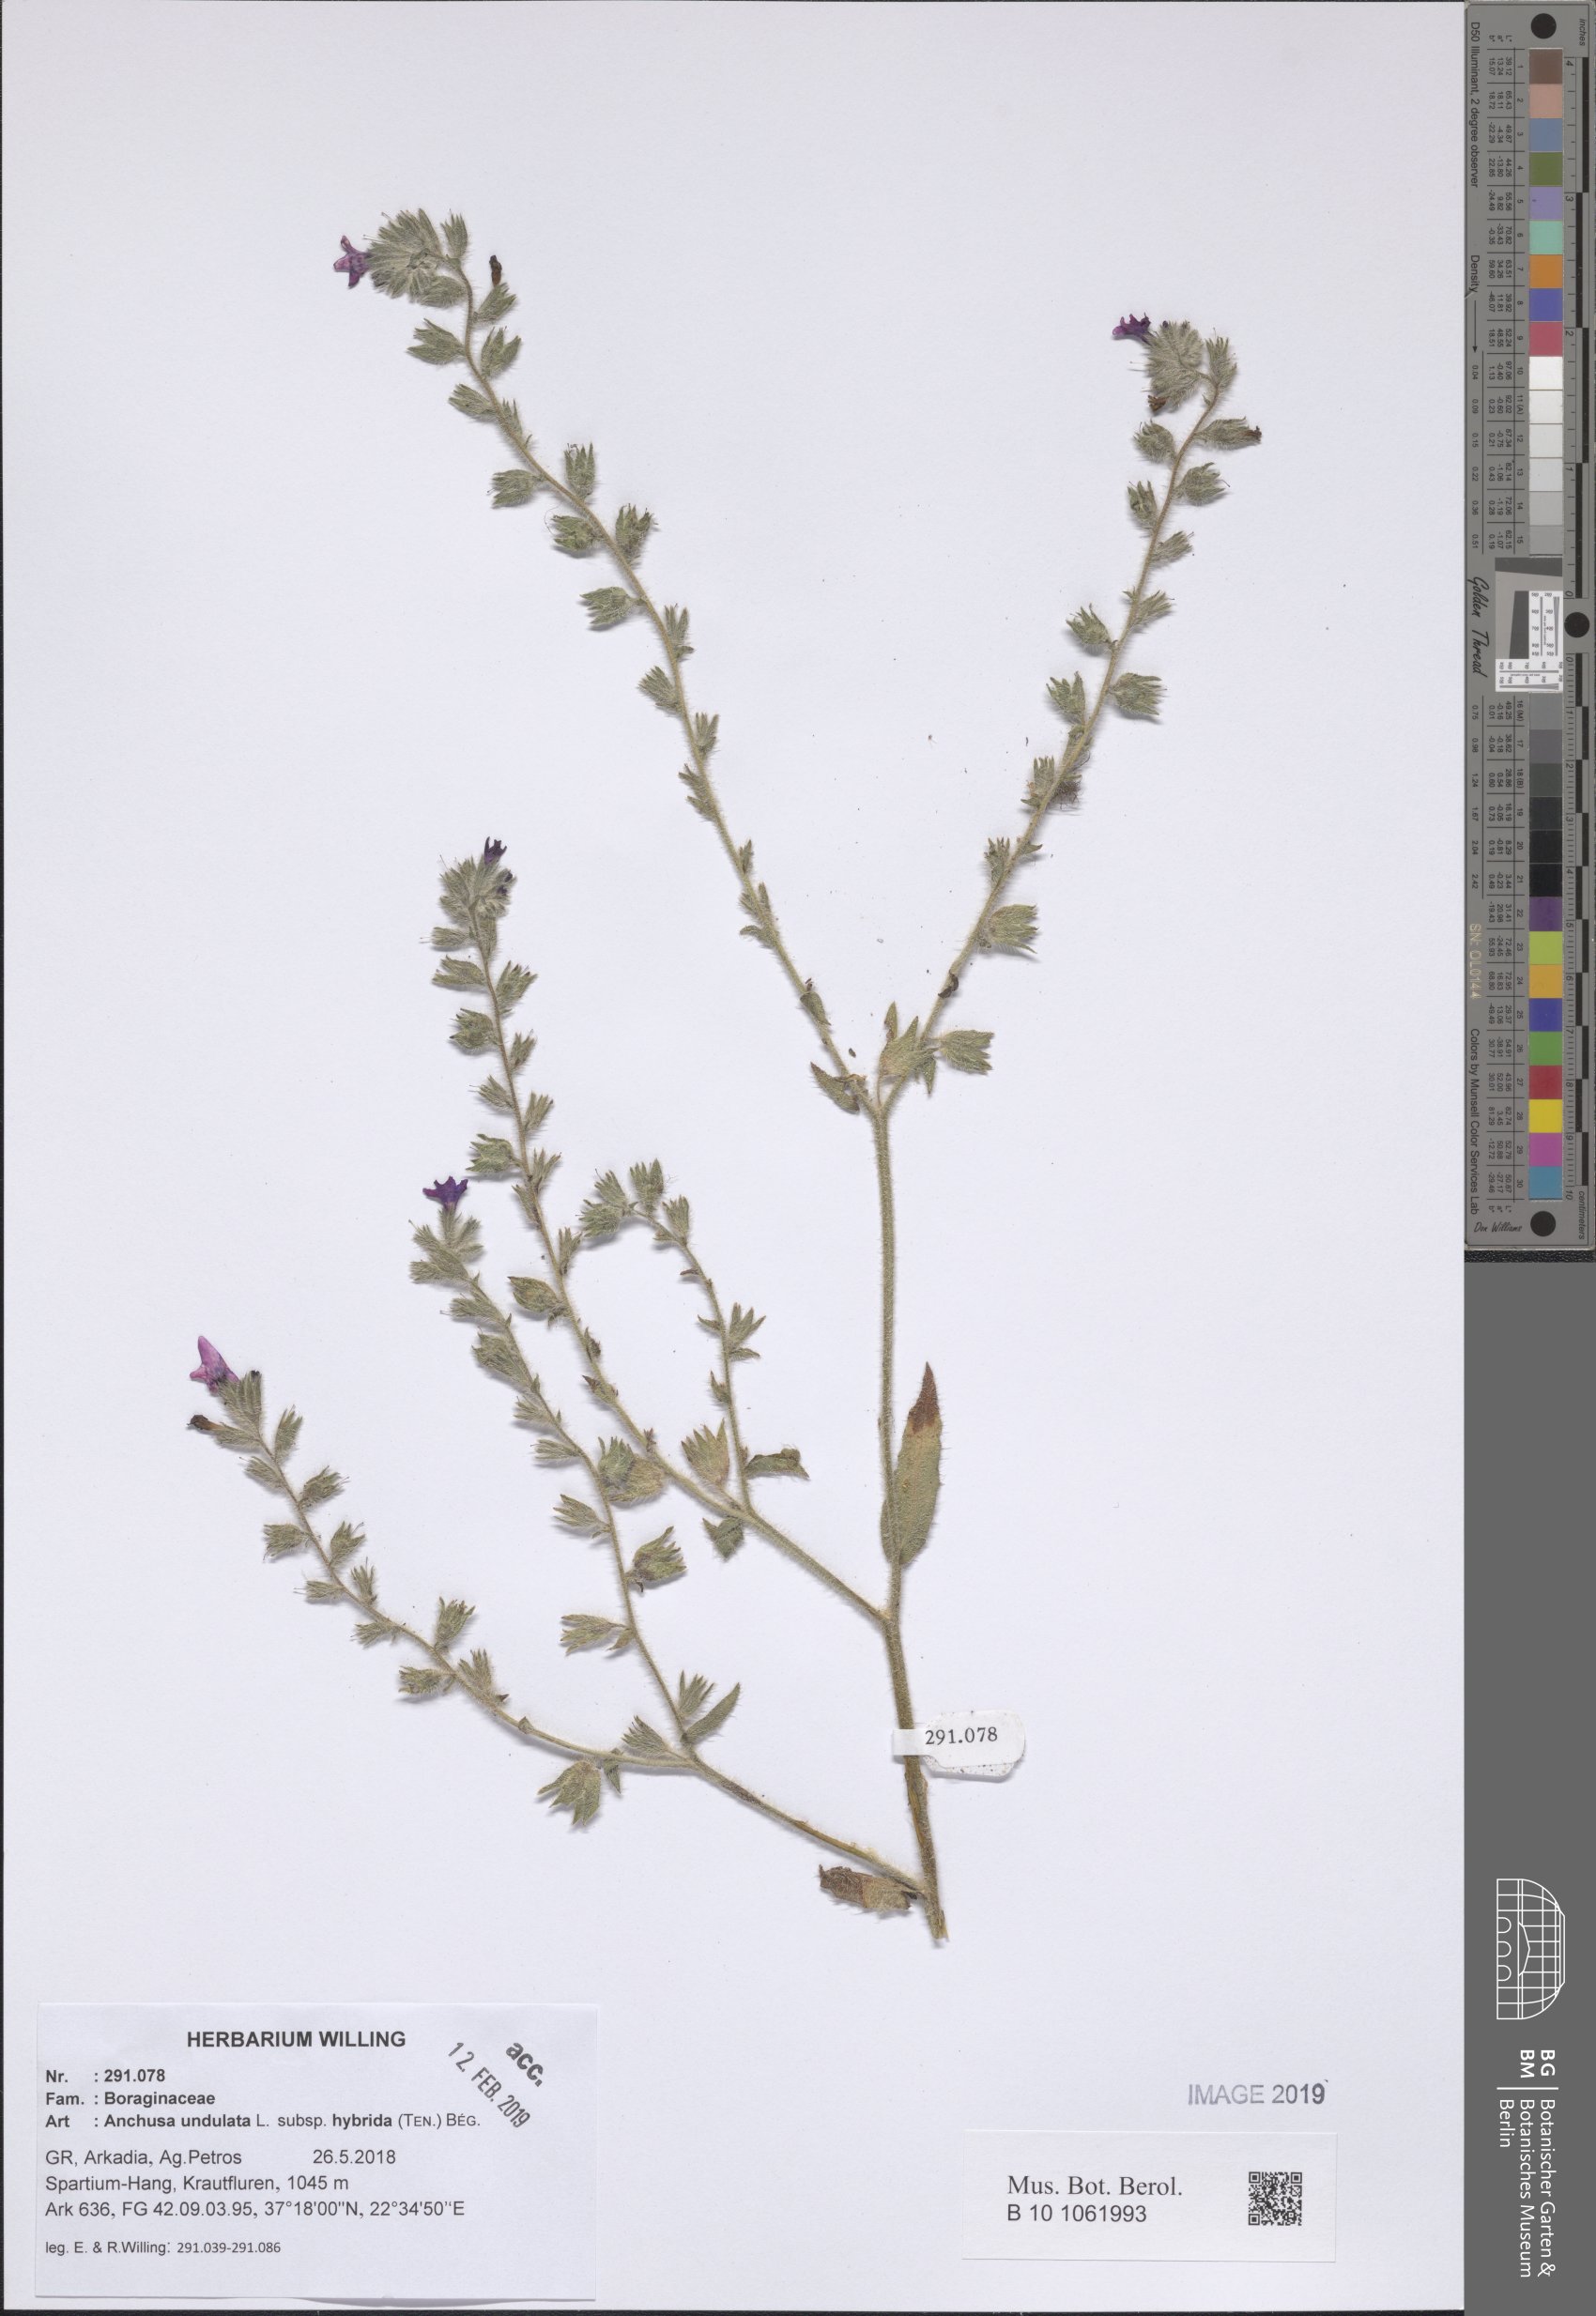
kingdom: Plantae
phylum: Tracheophyta
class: Magnoliopsida
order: Boraginales
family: Boraginaceae
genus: Anchusa
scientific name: Anchusa undulata
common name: Undulate alkanet
